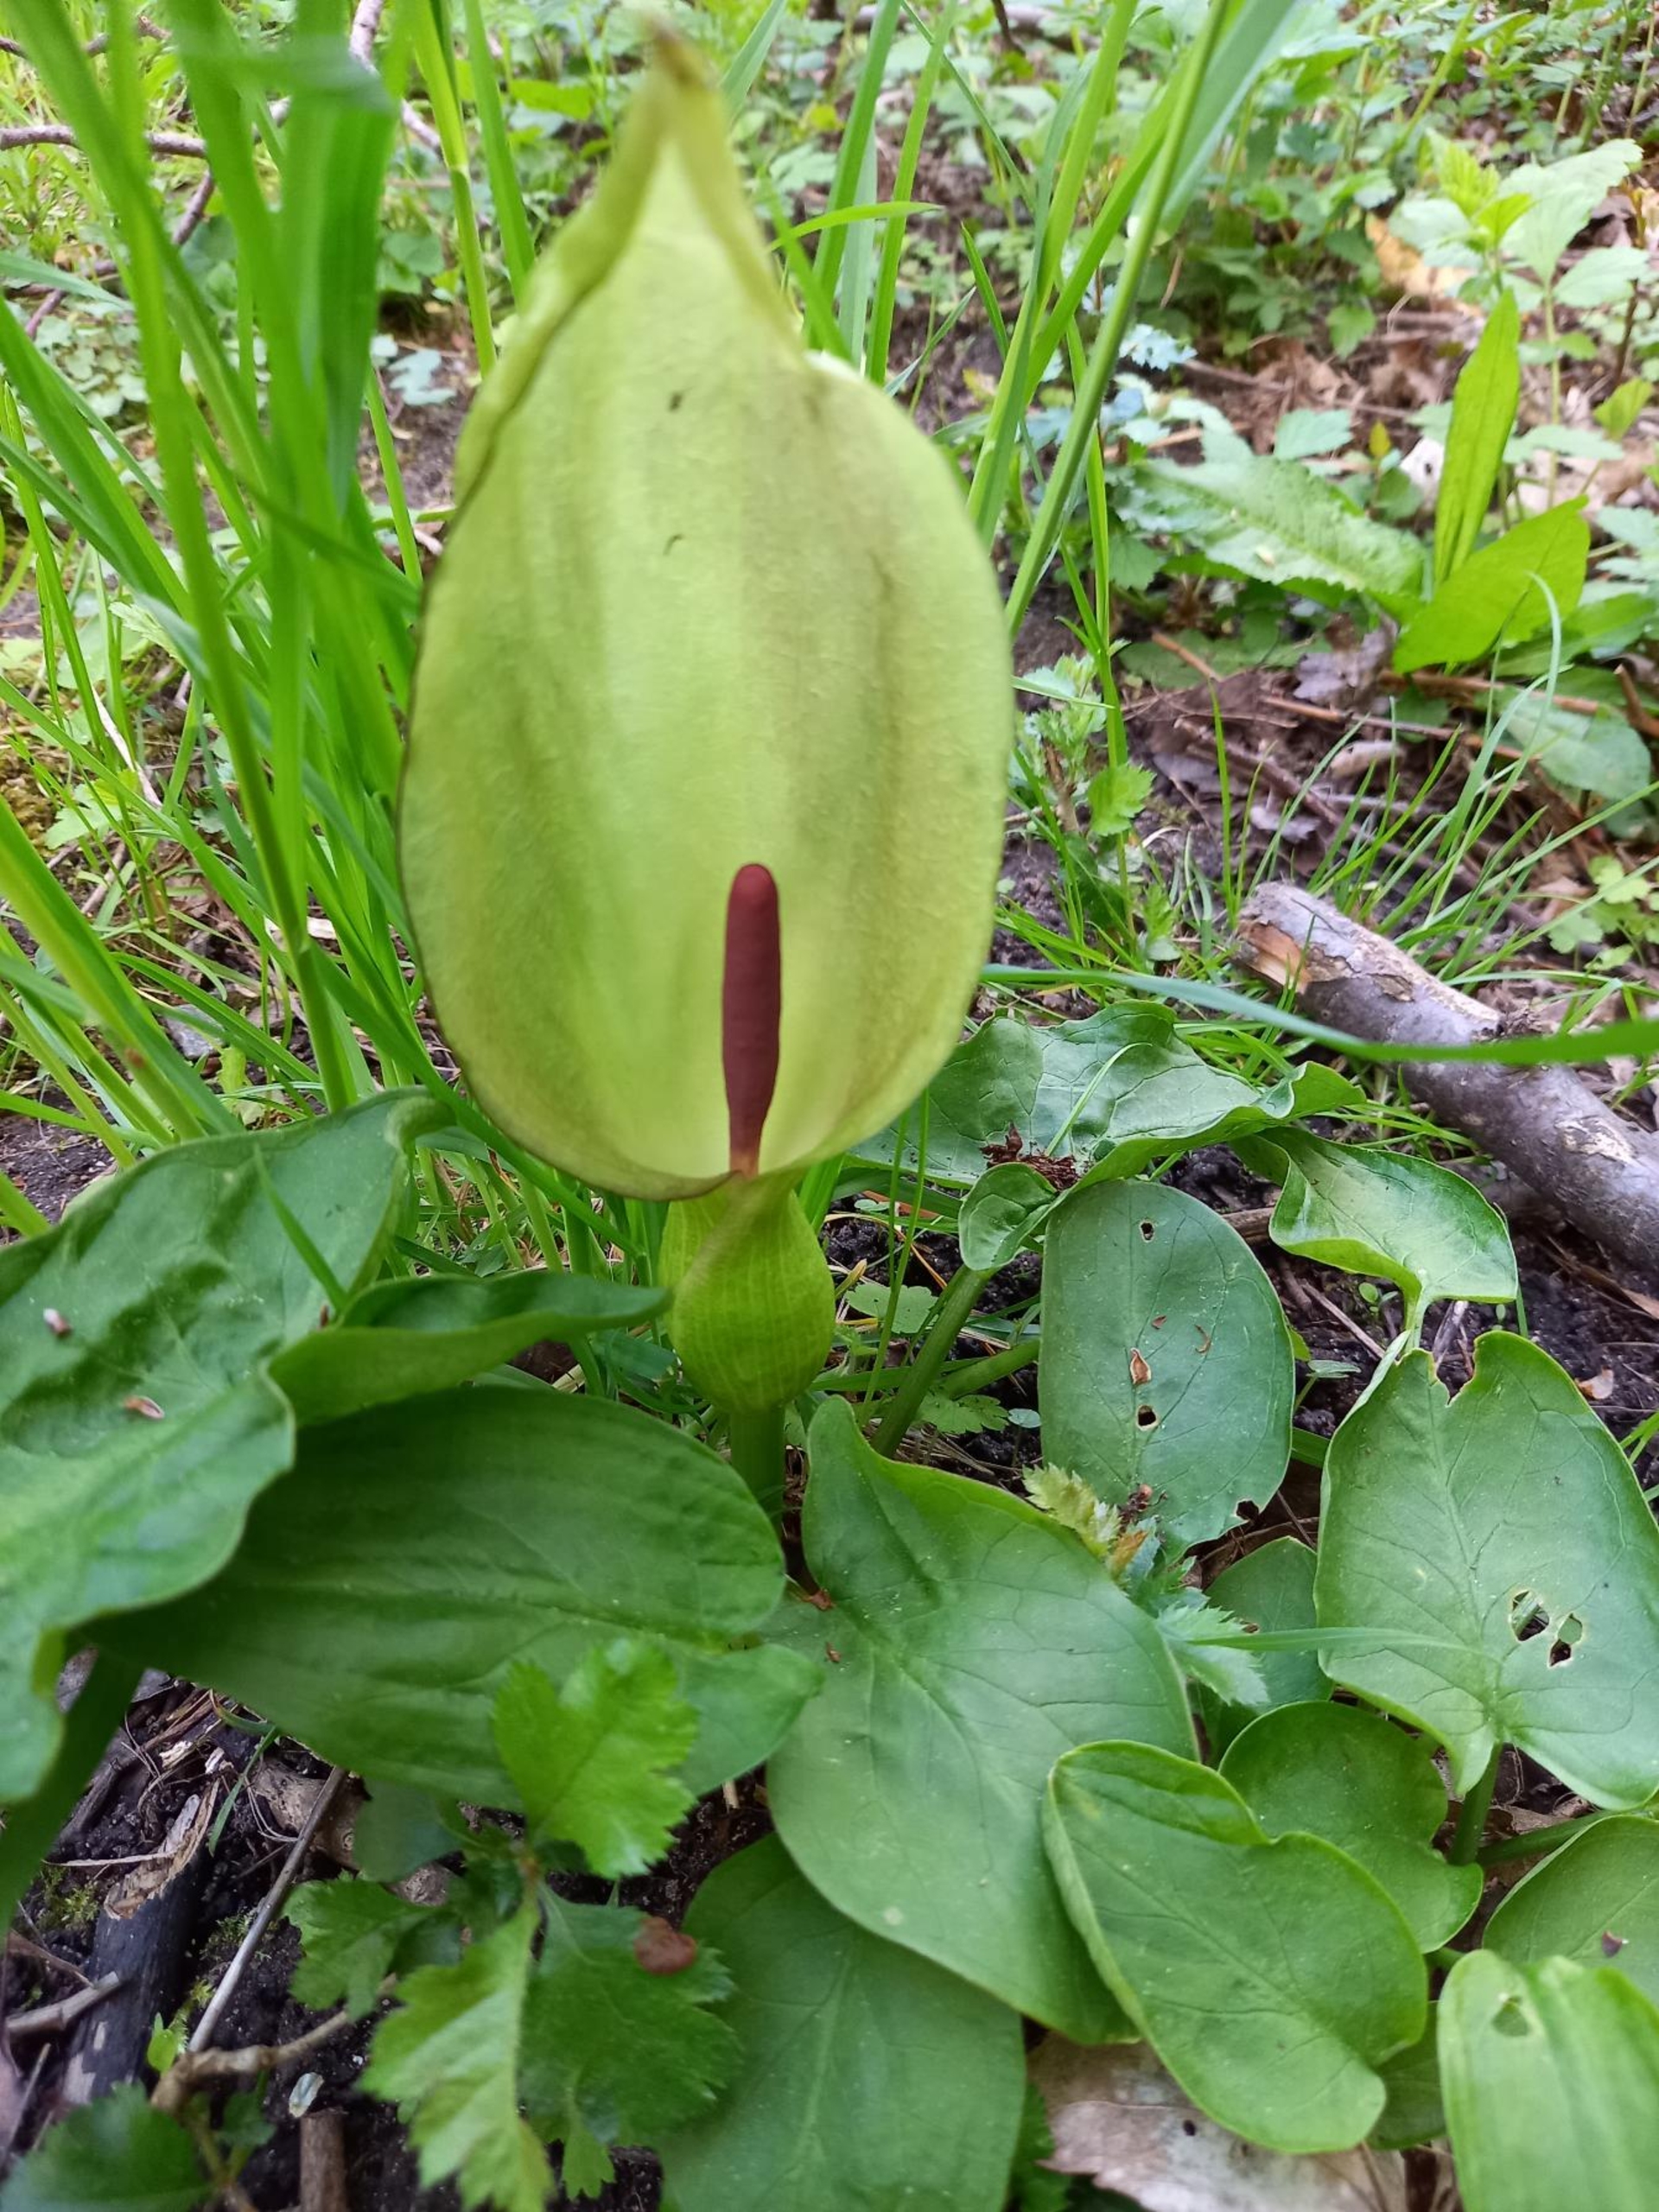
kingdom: Plantae
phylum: Tracheophyta
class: Liliopsida
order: Alismatales
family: Araceae
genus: Arum
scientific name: Arum maculatum
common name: Plettet arum
